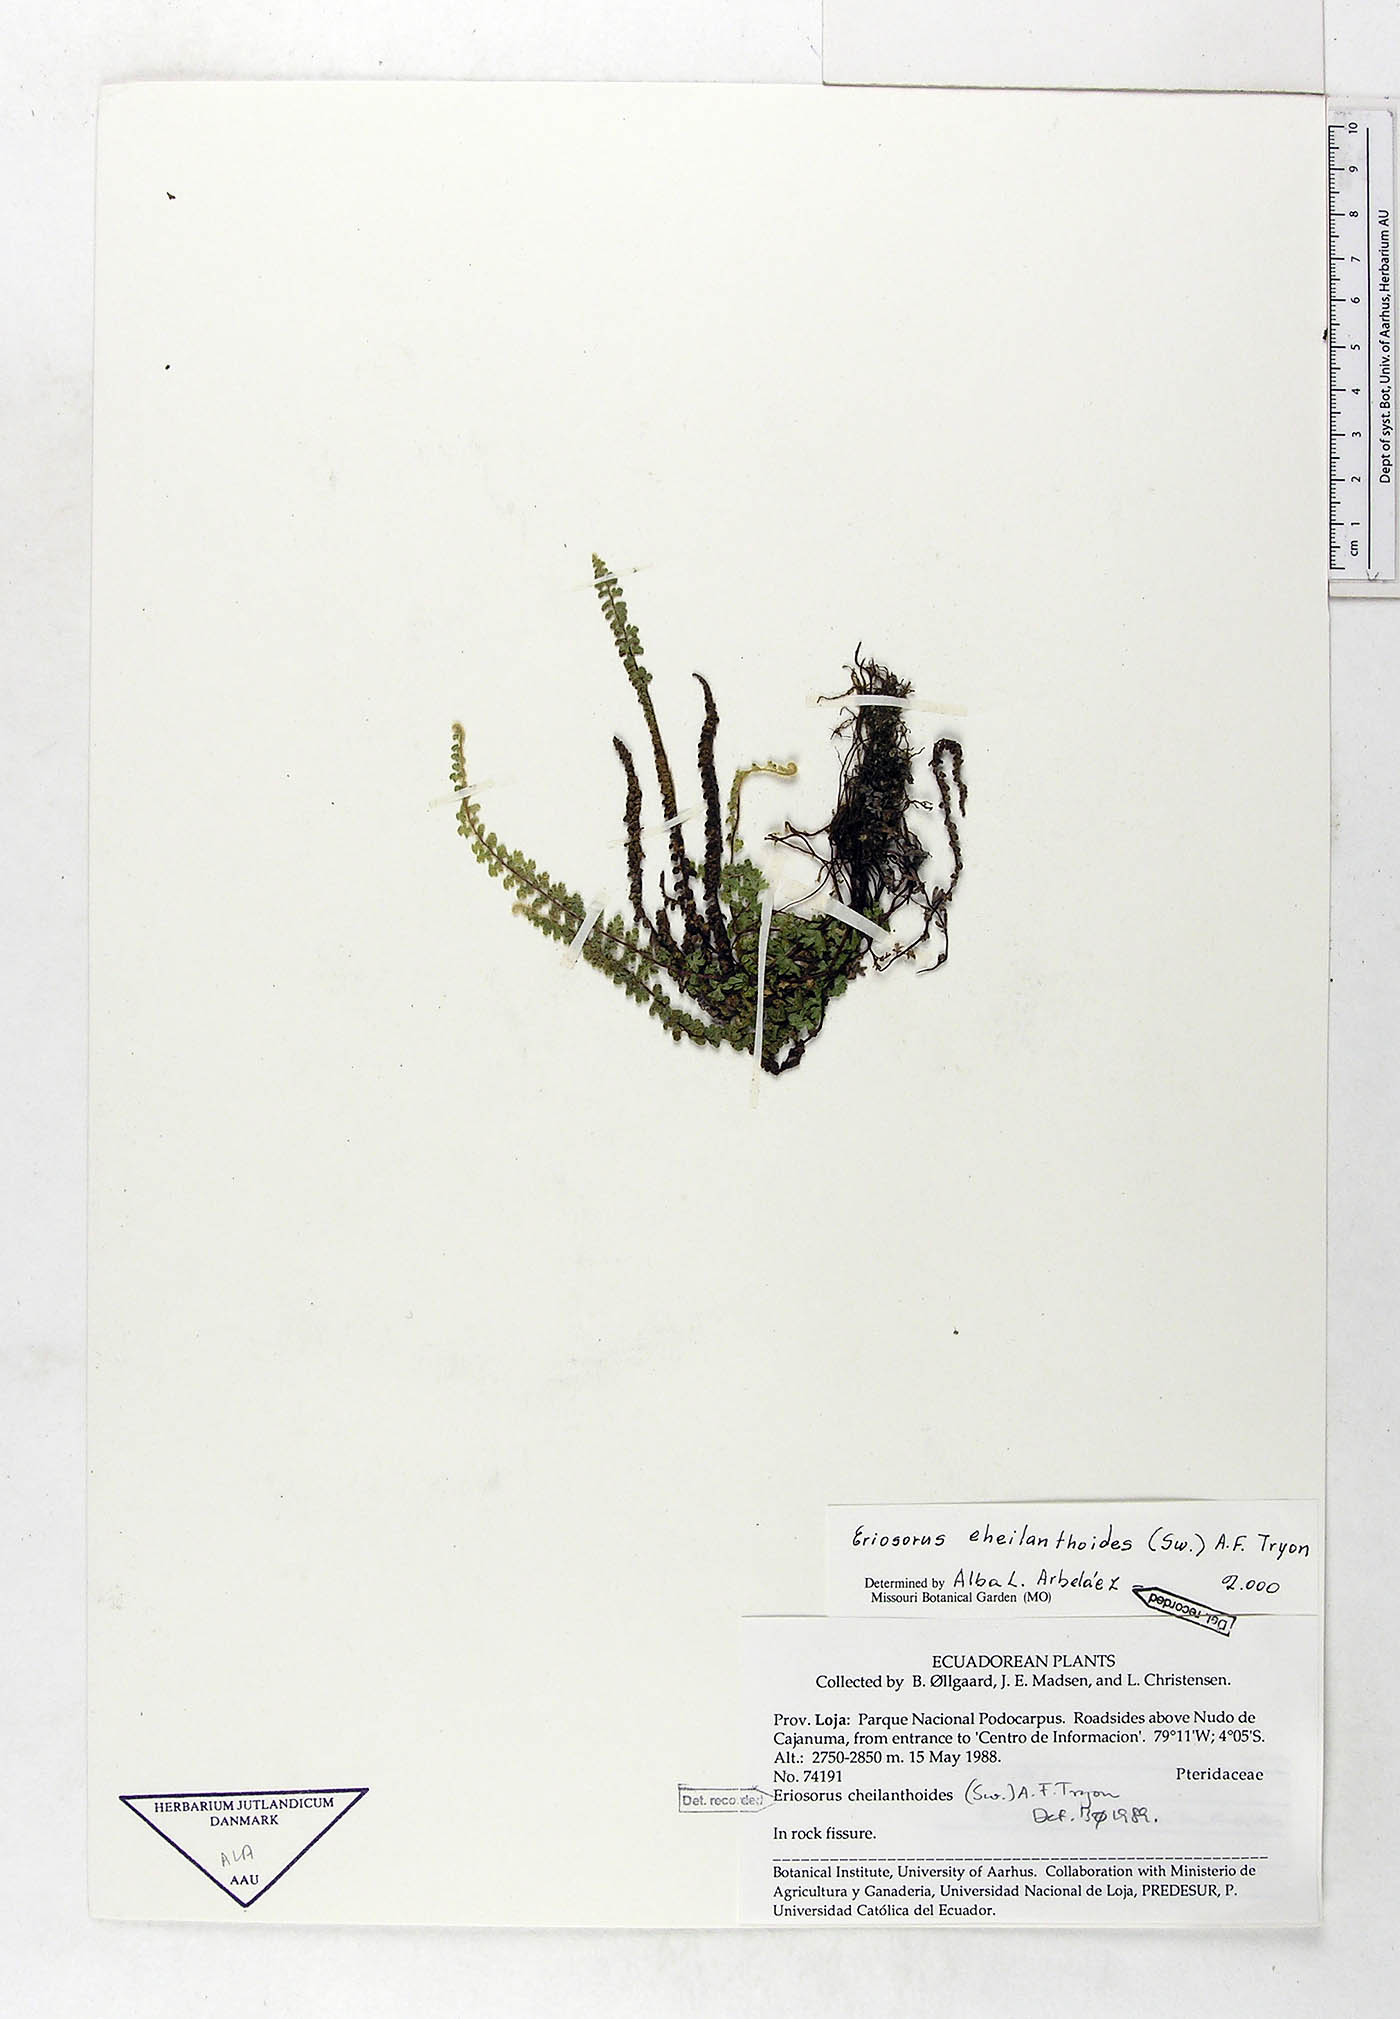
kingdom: Plantae
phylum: Tracheophyta
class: Polypodiopsida
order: Polypodiales
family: Pteridaceae
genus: Jamesonia
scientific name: Jamesonia cheilanthoides
